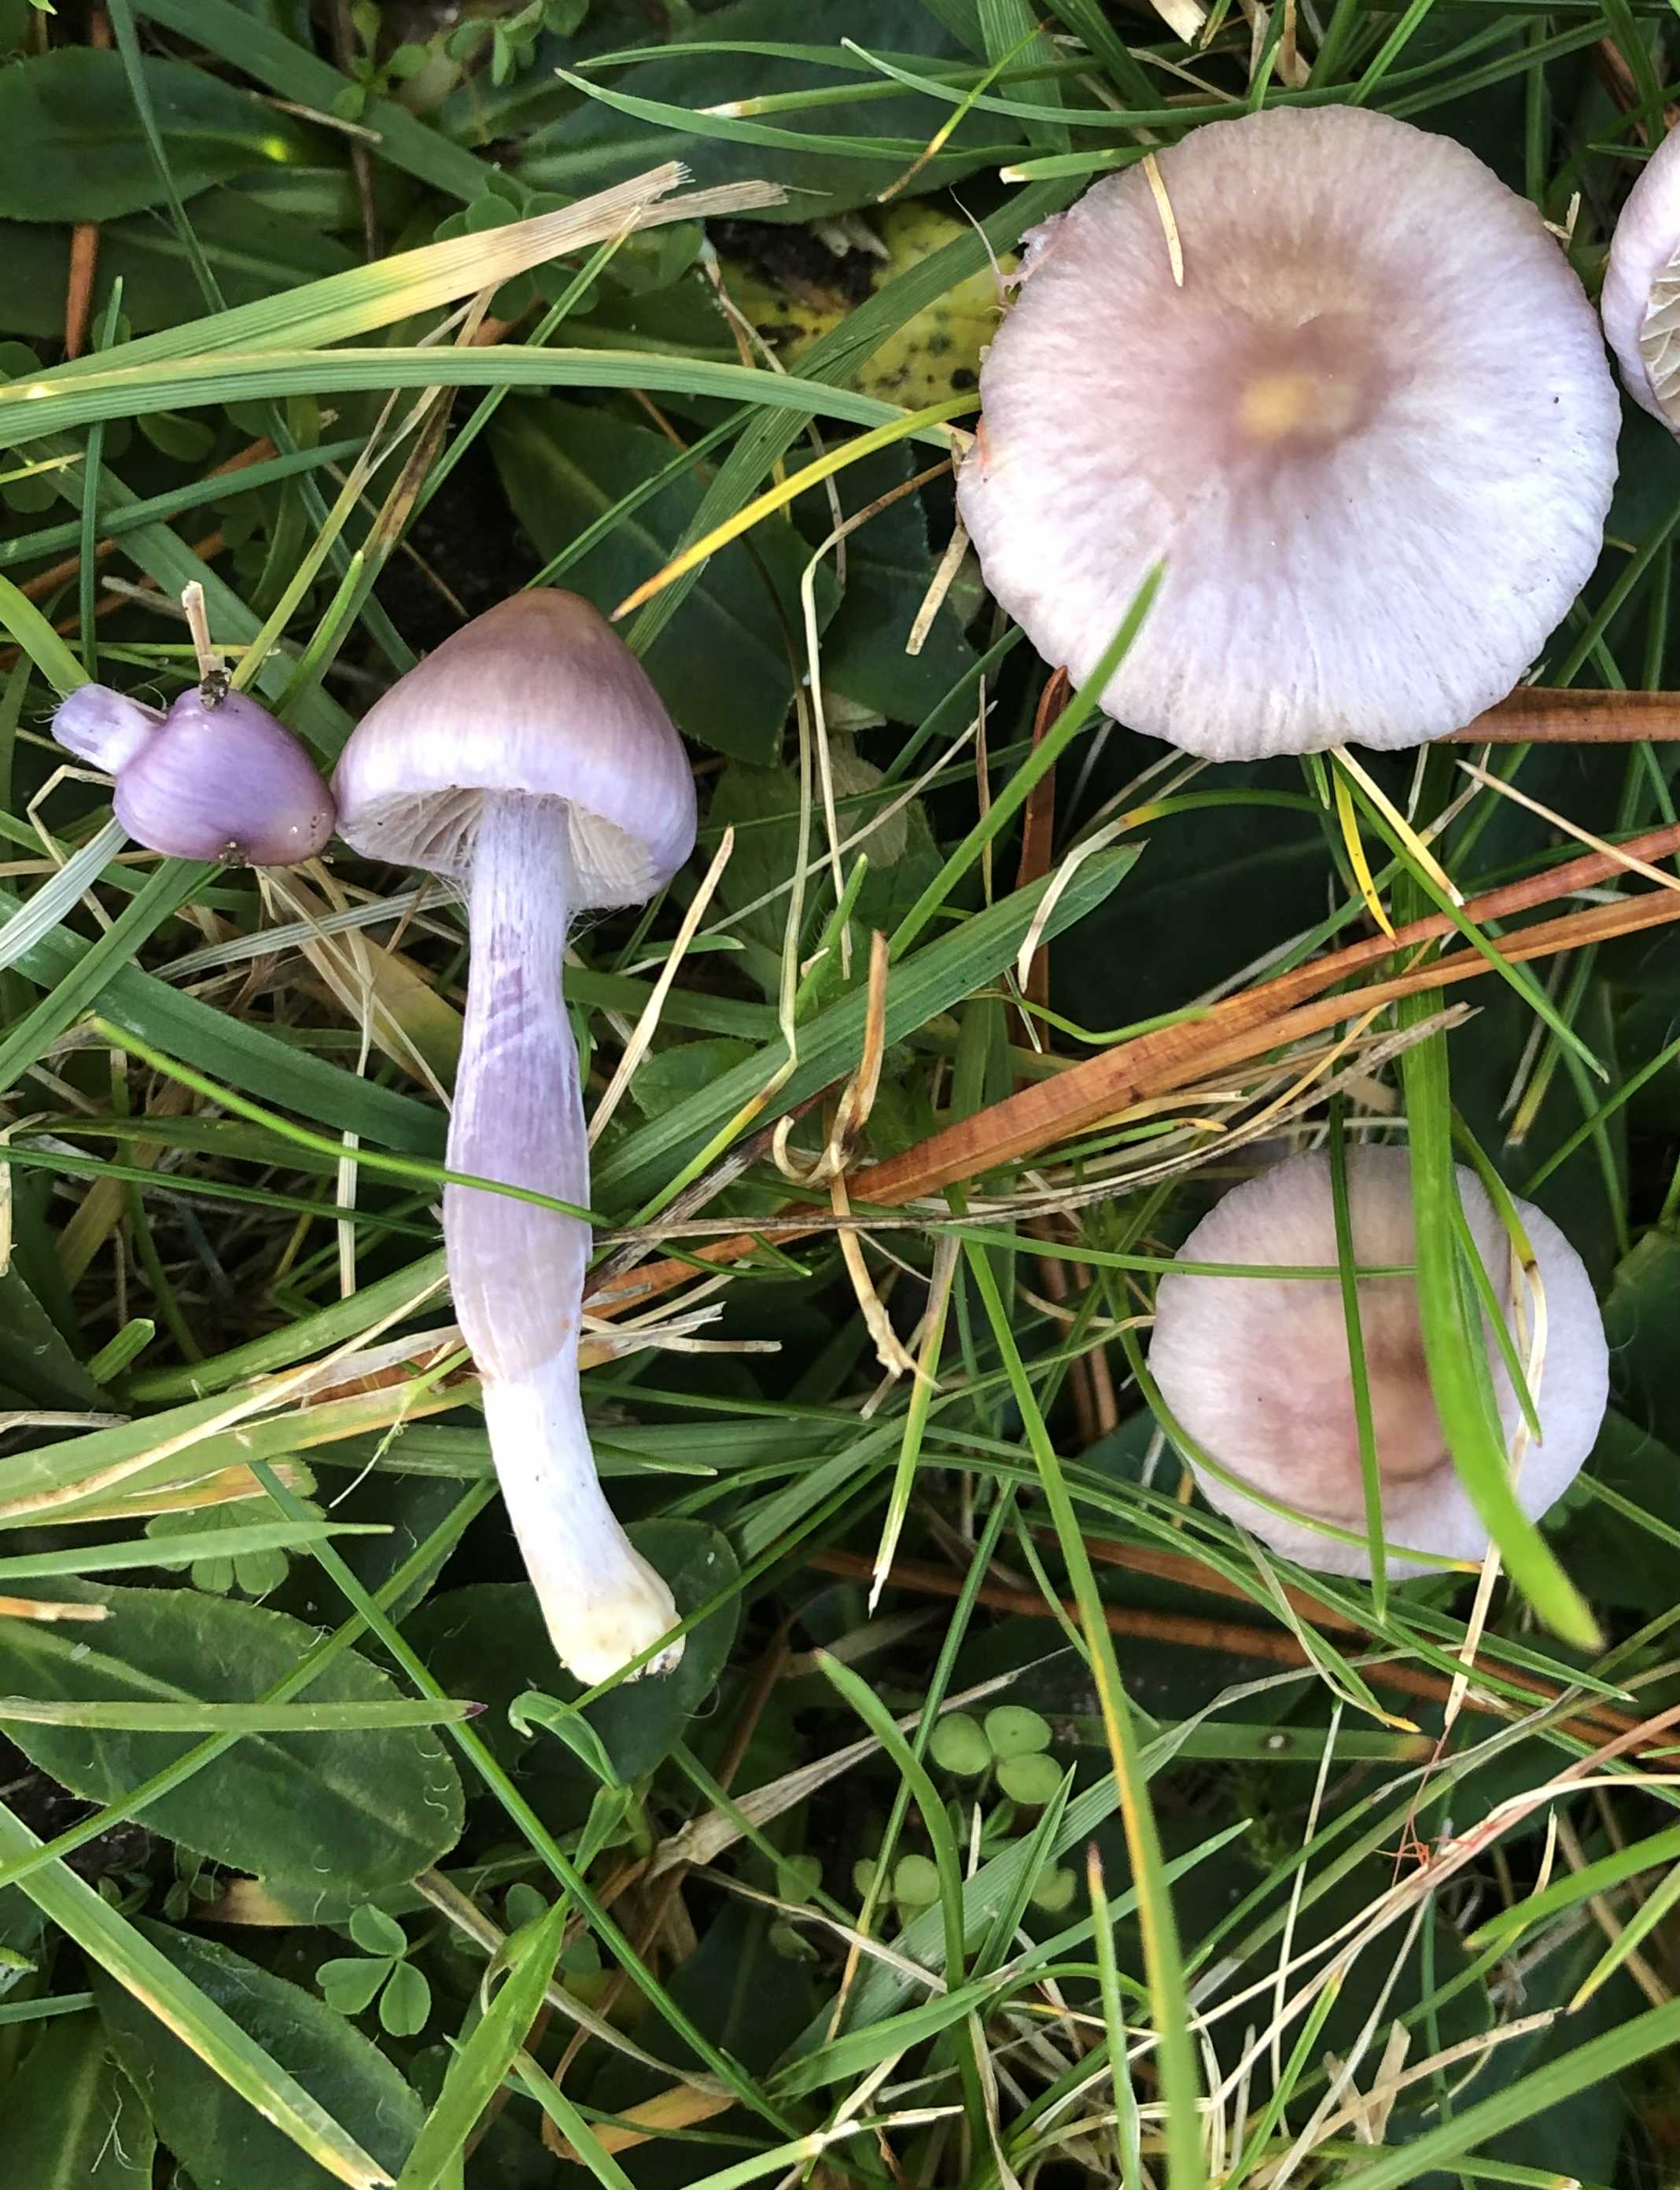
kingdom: Fungi
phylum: Basidiomycota
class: Agaricomycetes
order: Agaricales
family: Inocybaceae
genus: Inocybe
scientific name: Inocybe geophylla
